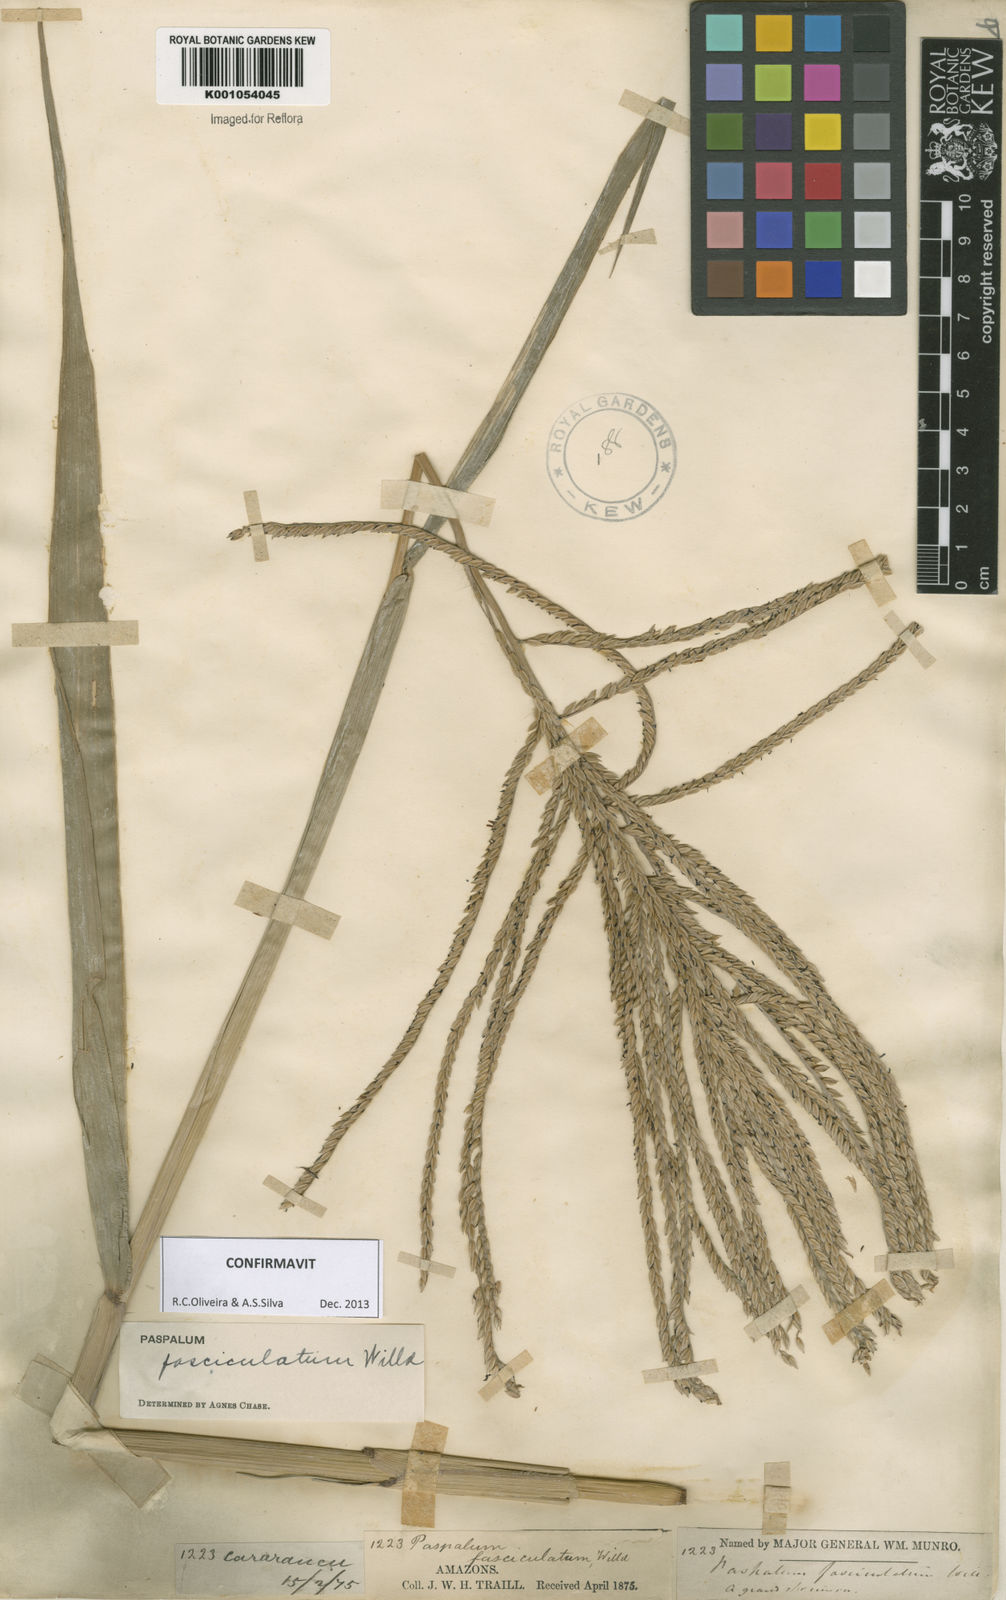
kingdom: Plantae
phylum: Tracheophyta
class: Liliopsida
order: Poales
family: Poaceae
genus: Paspalum
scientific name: Paspalum
